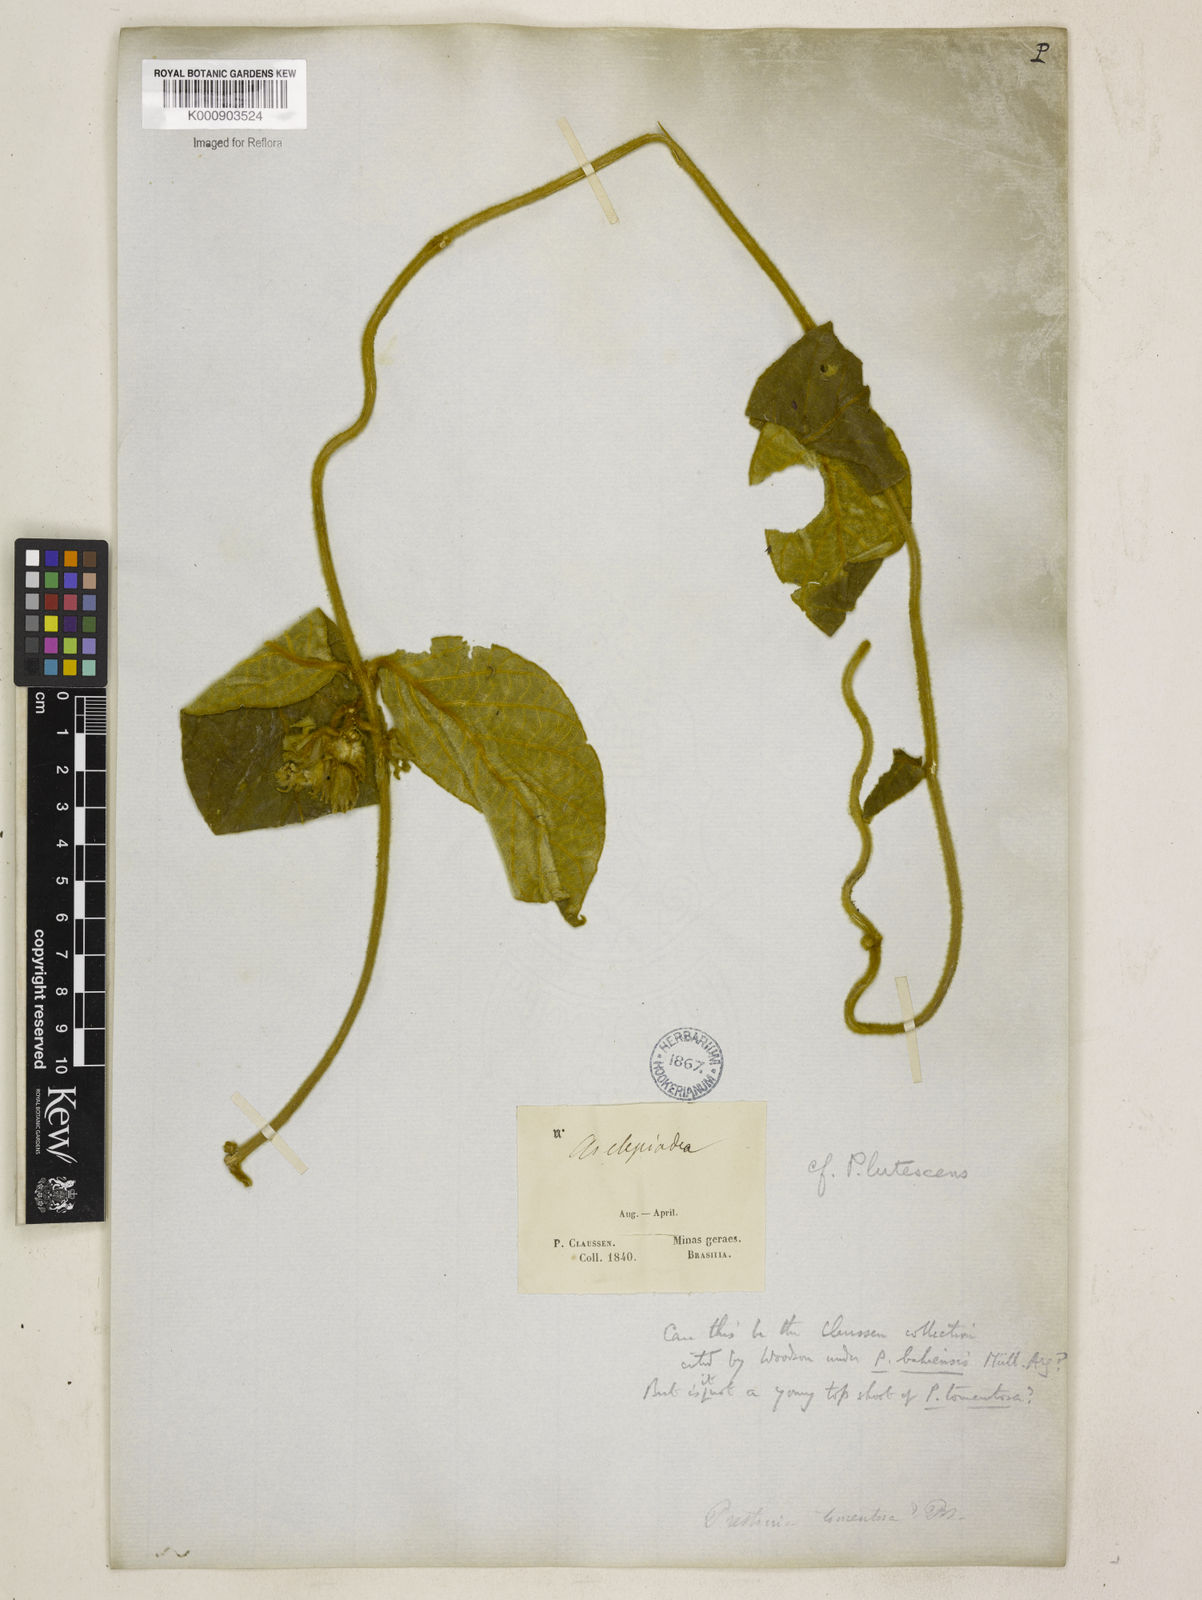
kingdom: Plantae
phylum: Tracheophyta
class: Magnoliopsida
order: Gentianales
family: Apocynaceae
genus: Prestonia
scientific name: Prestonia tomentosa
